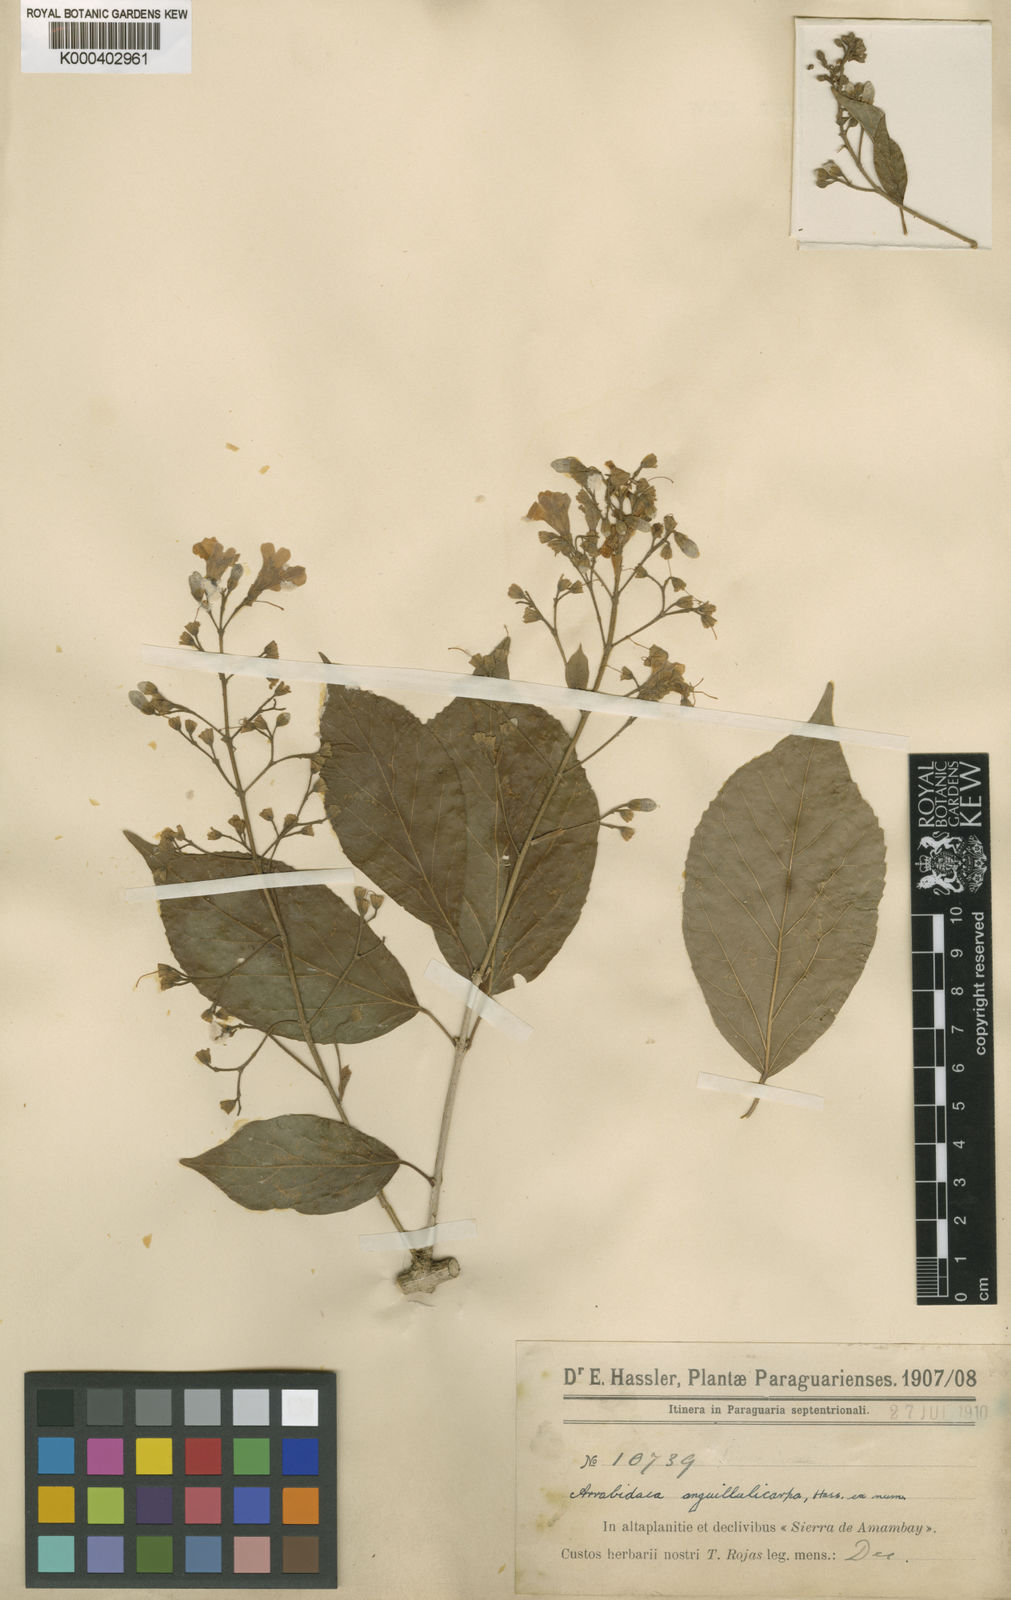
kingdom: Plantae
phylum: Tracheophyta
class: Magnoliopsida
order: Lamiales
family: Bignoniaceae
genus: Fridericia
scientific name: Fridericia samydoides
